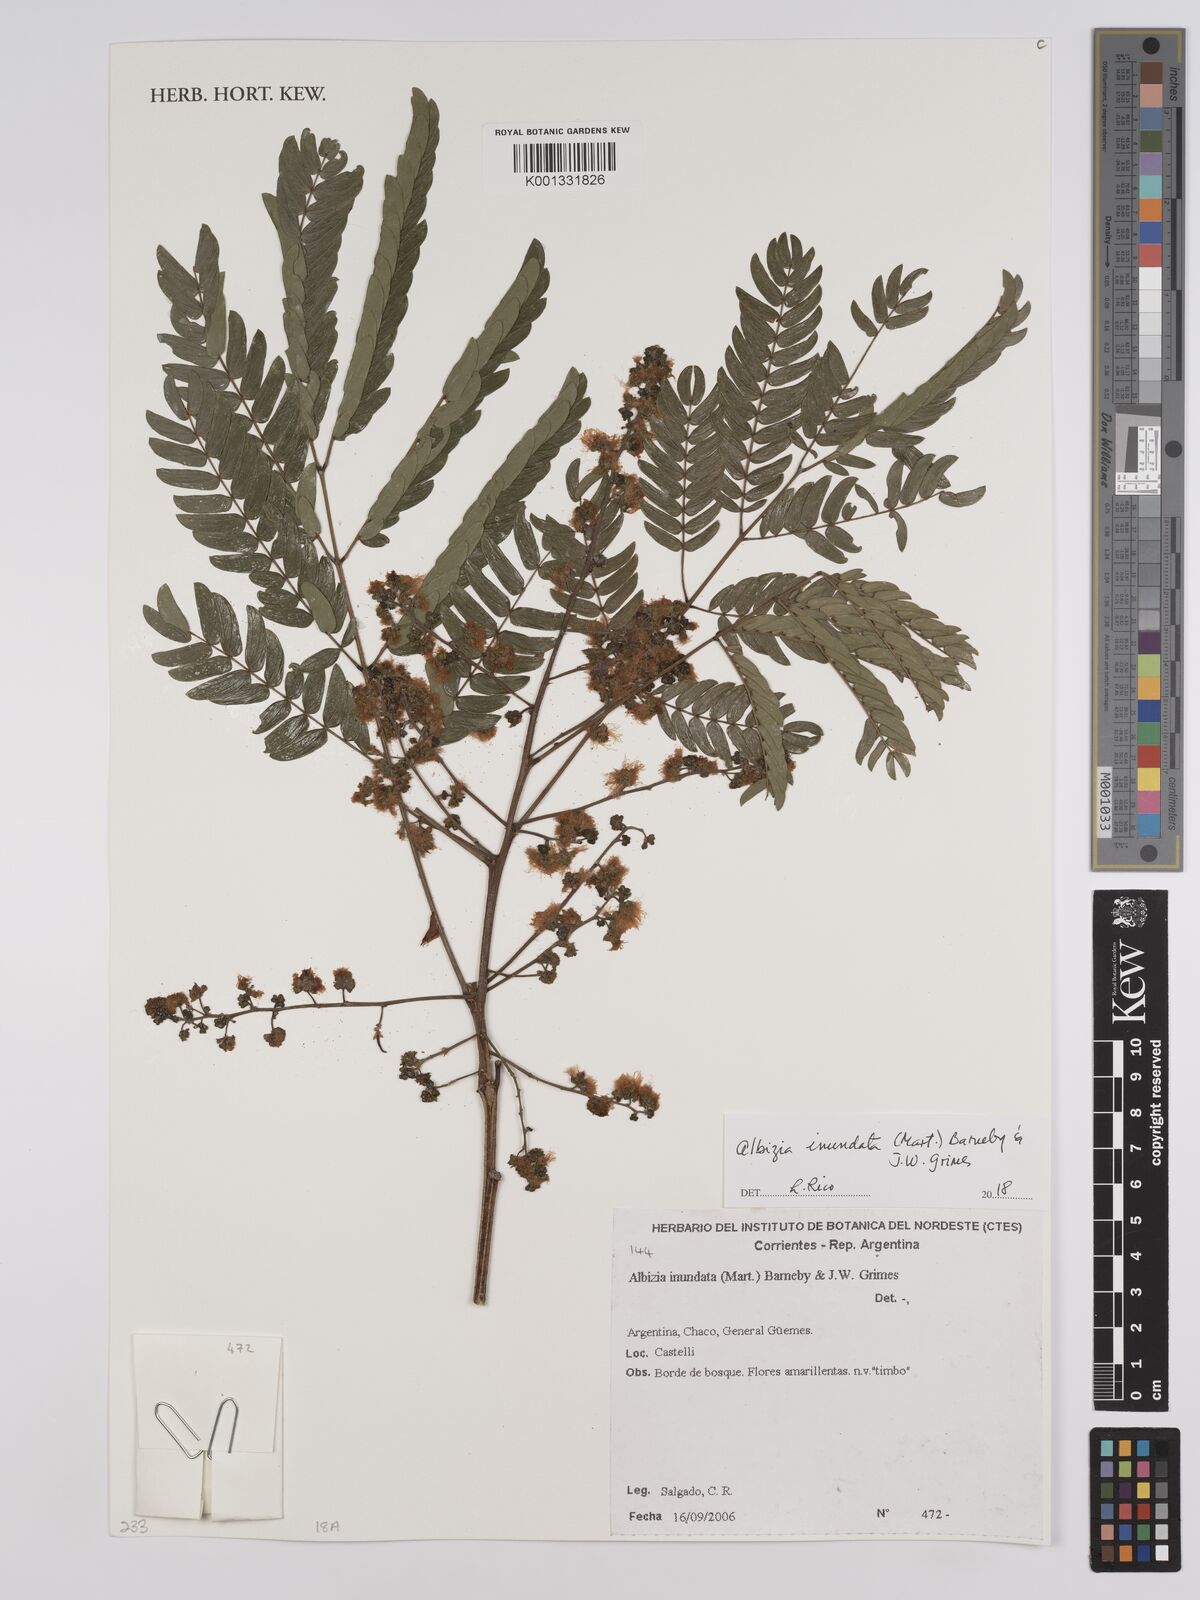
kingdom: Plantae
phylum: Tracheophyta
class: Magnoliopsida
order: Fabales
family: Fabaceae
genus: Albizia
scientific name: Albizia inundata
